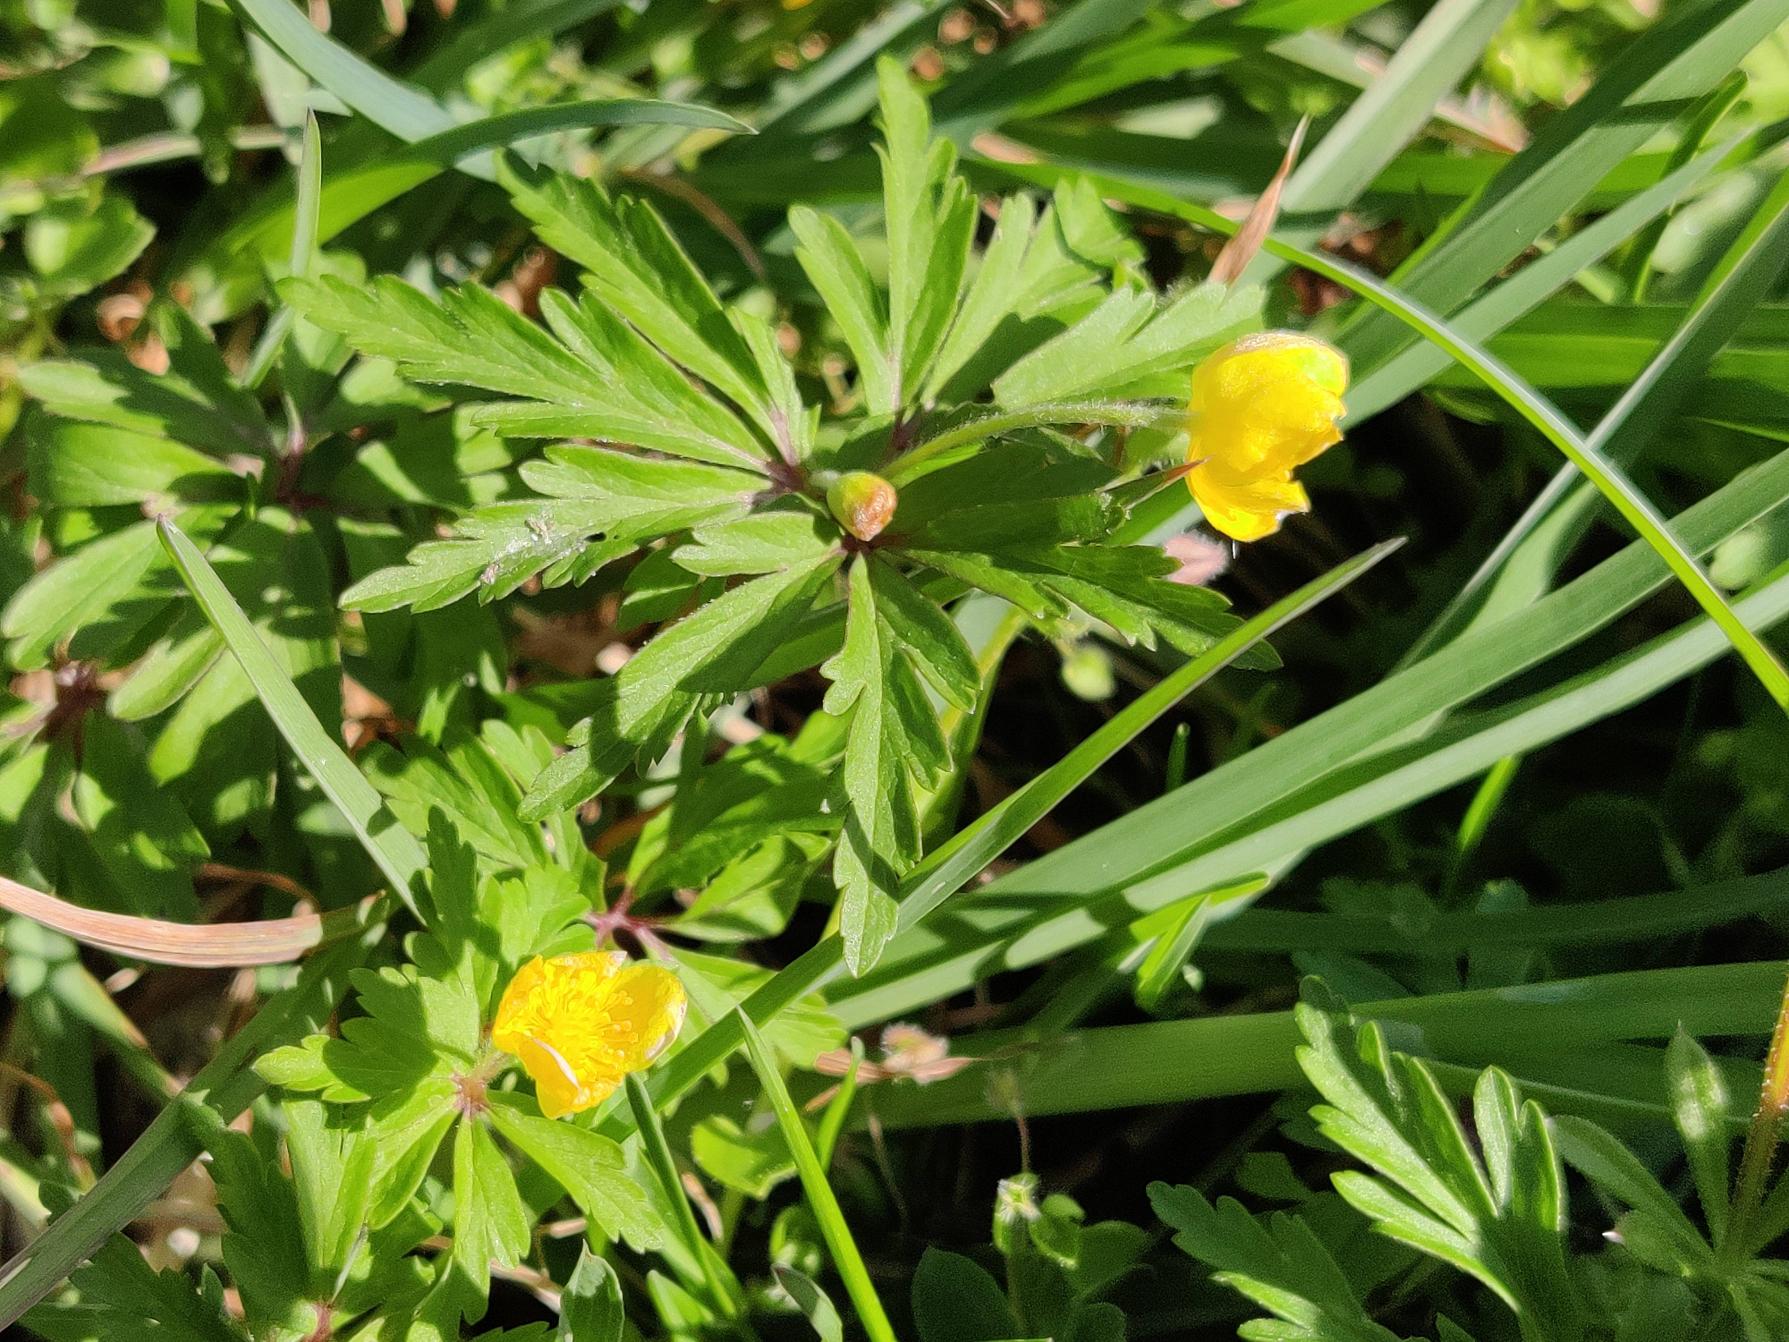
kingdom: Plantae
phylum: Tracheophyta
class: Magnoliopsida
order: Ranunculales
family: Ranunculaceae
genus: Anemone
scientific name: Anemone ranunculoides
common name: Gul anemone
